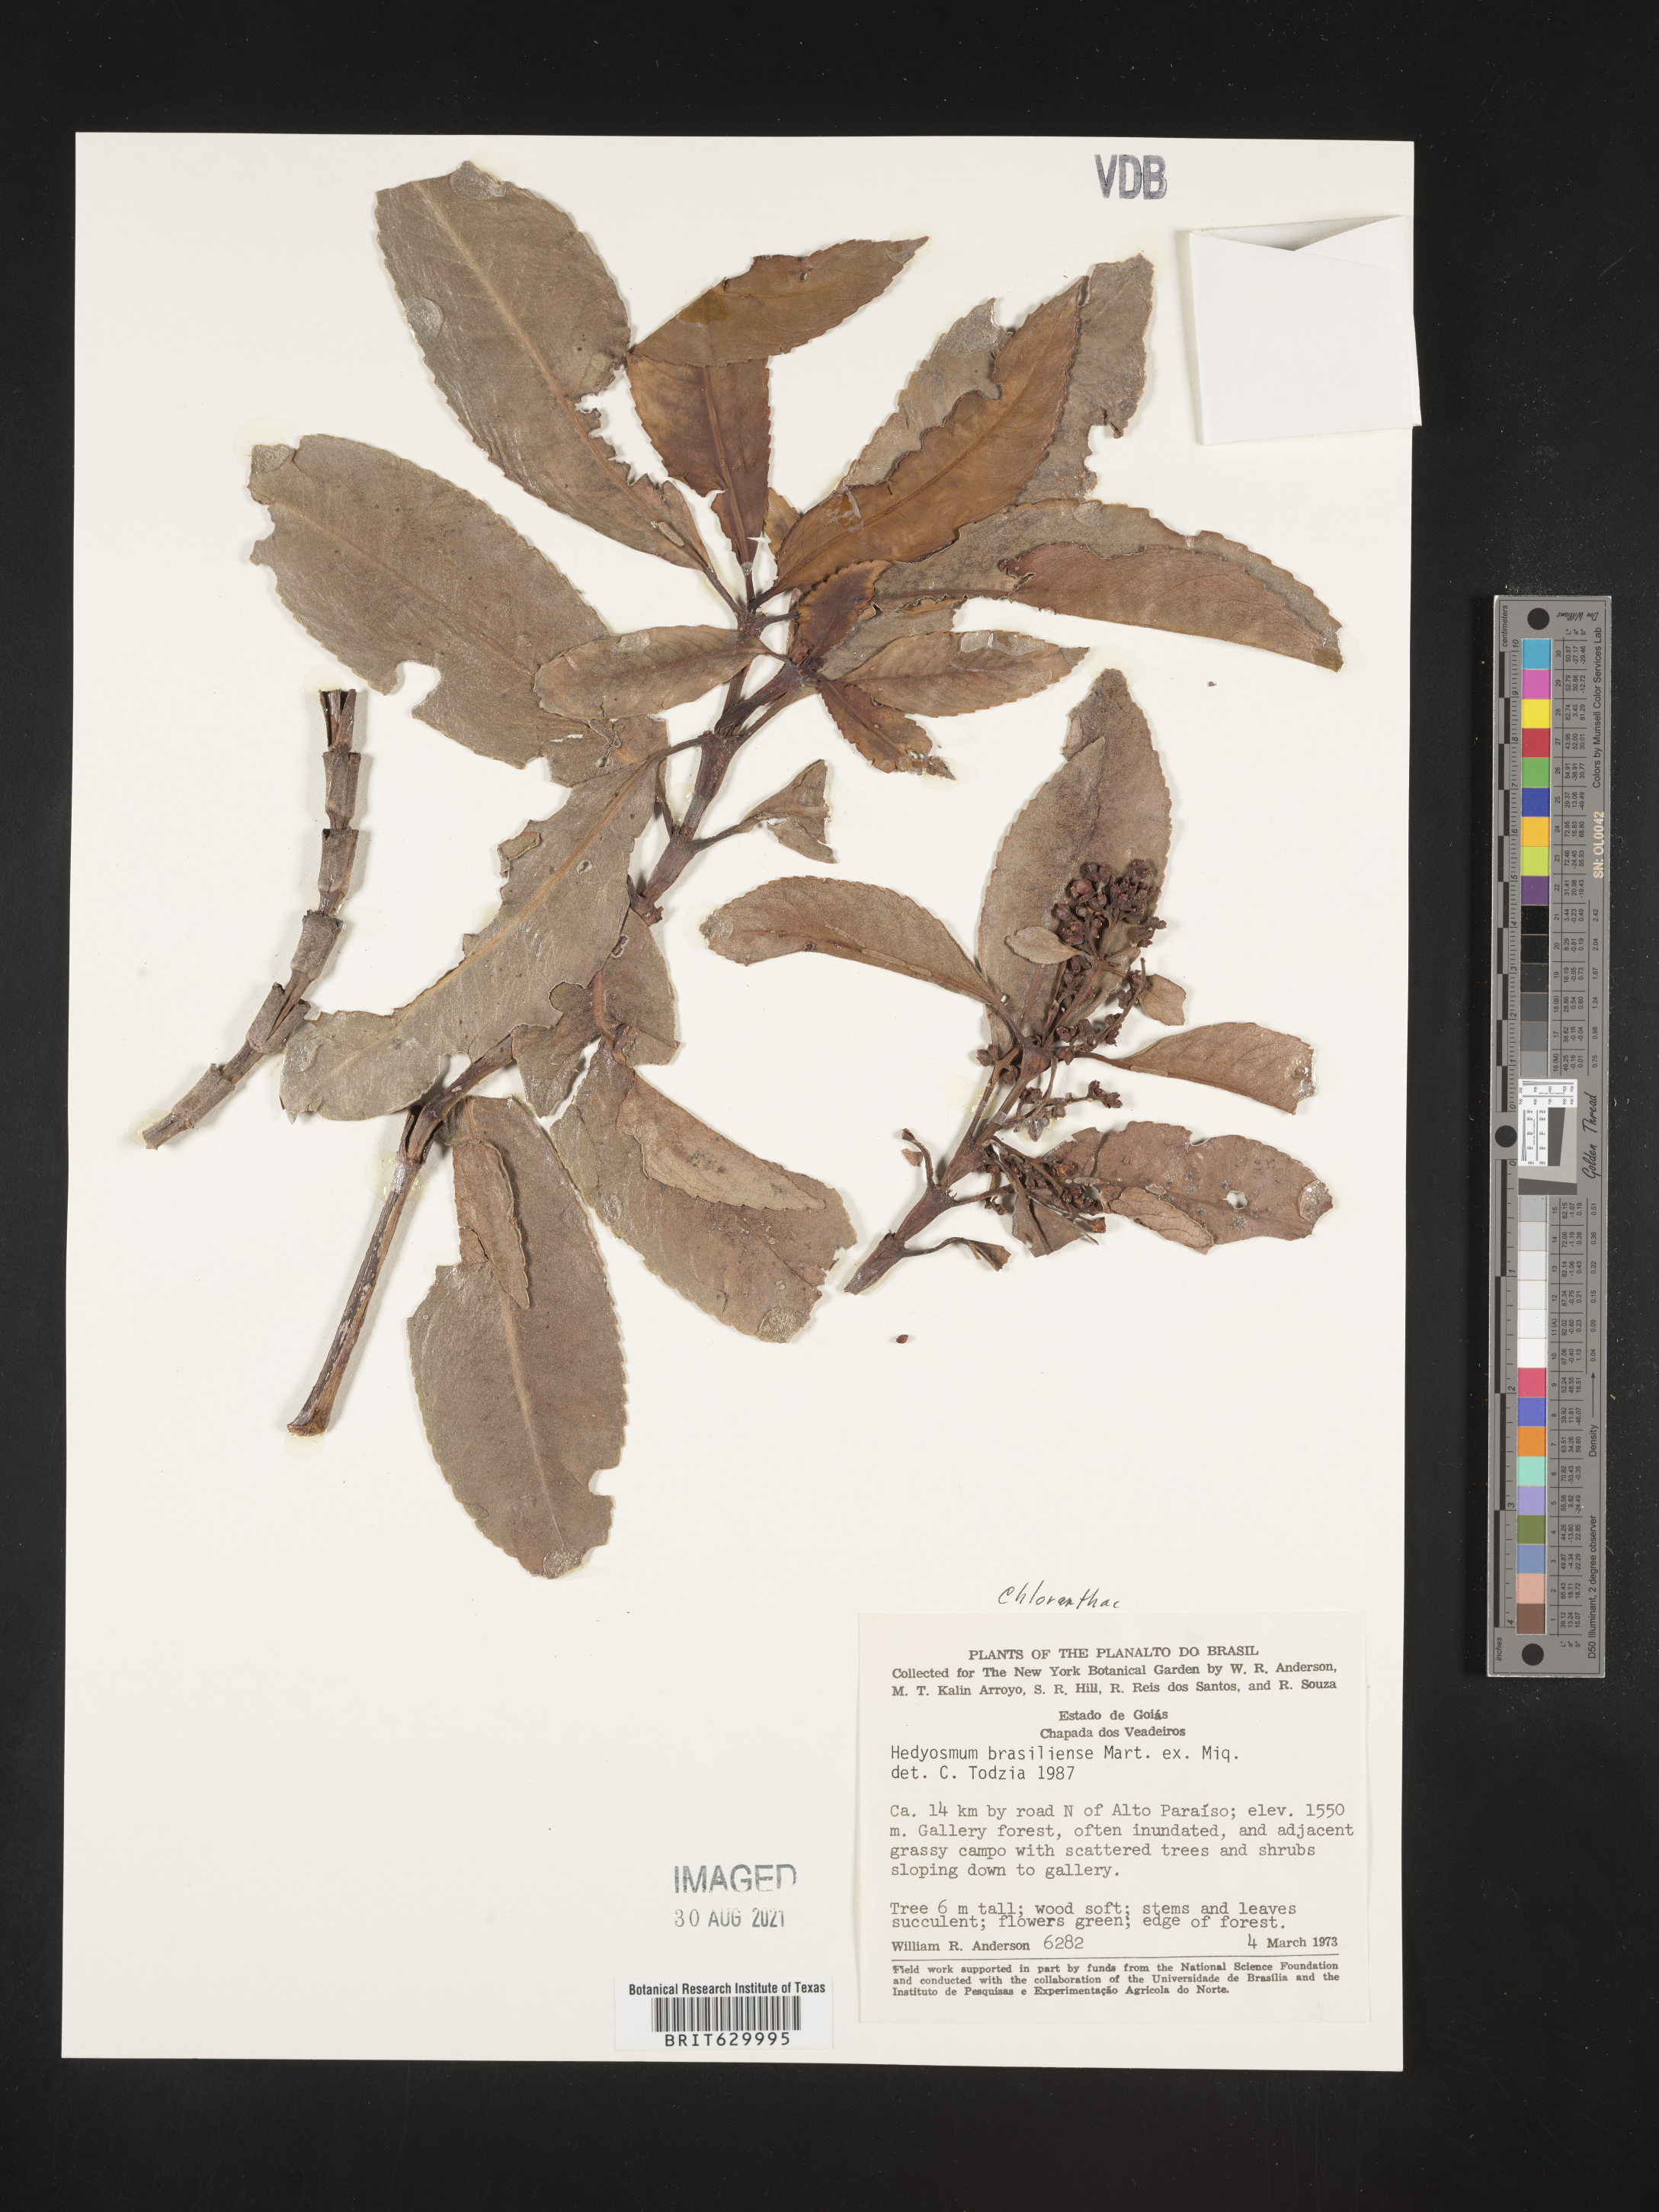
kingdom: Plantae
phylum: Tracheophyta
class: Magnoliopsida
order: Chloranthales
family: Chloranthaceae
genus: Hedyosmum
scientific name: Hedyosmum brasiliense
